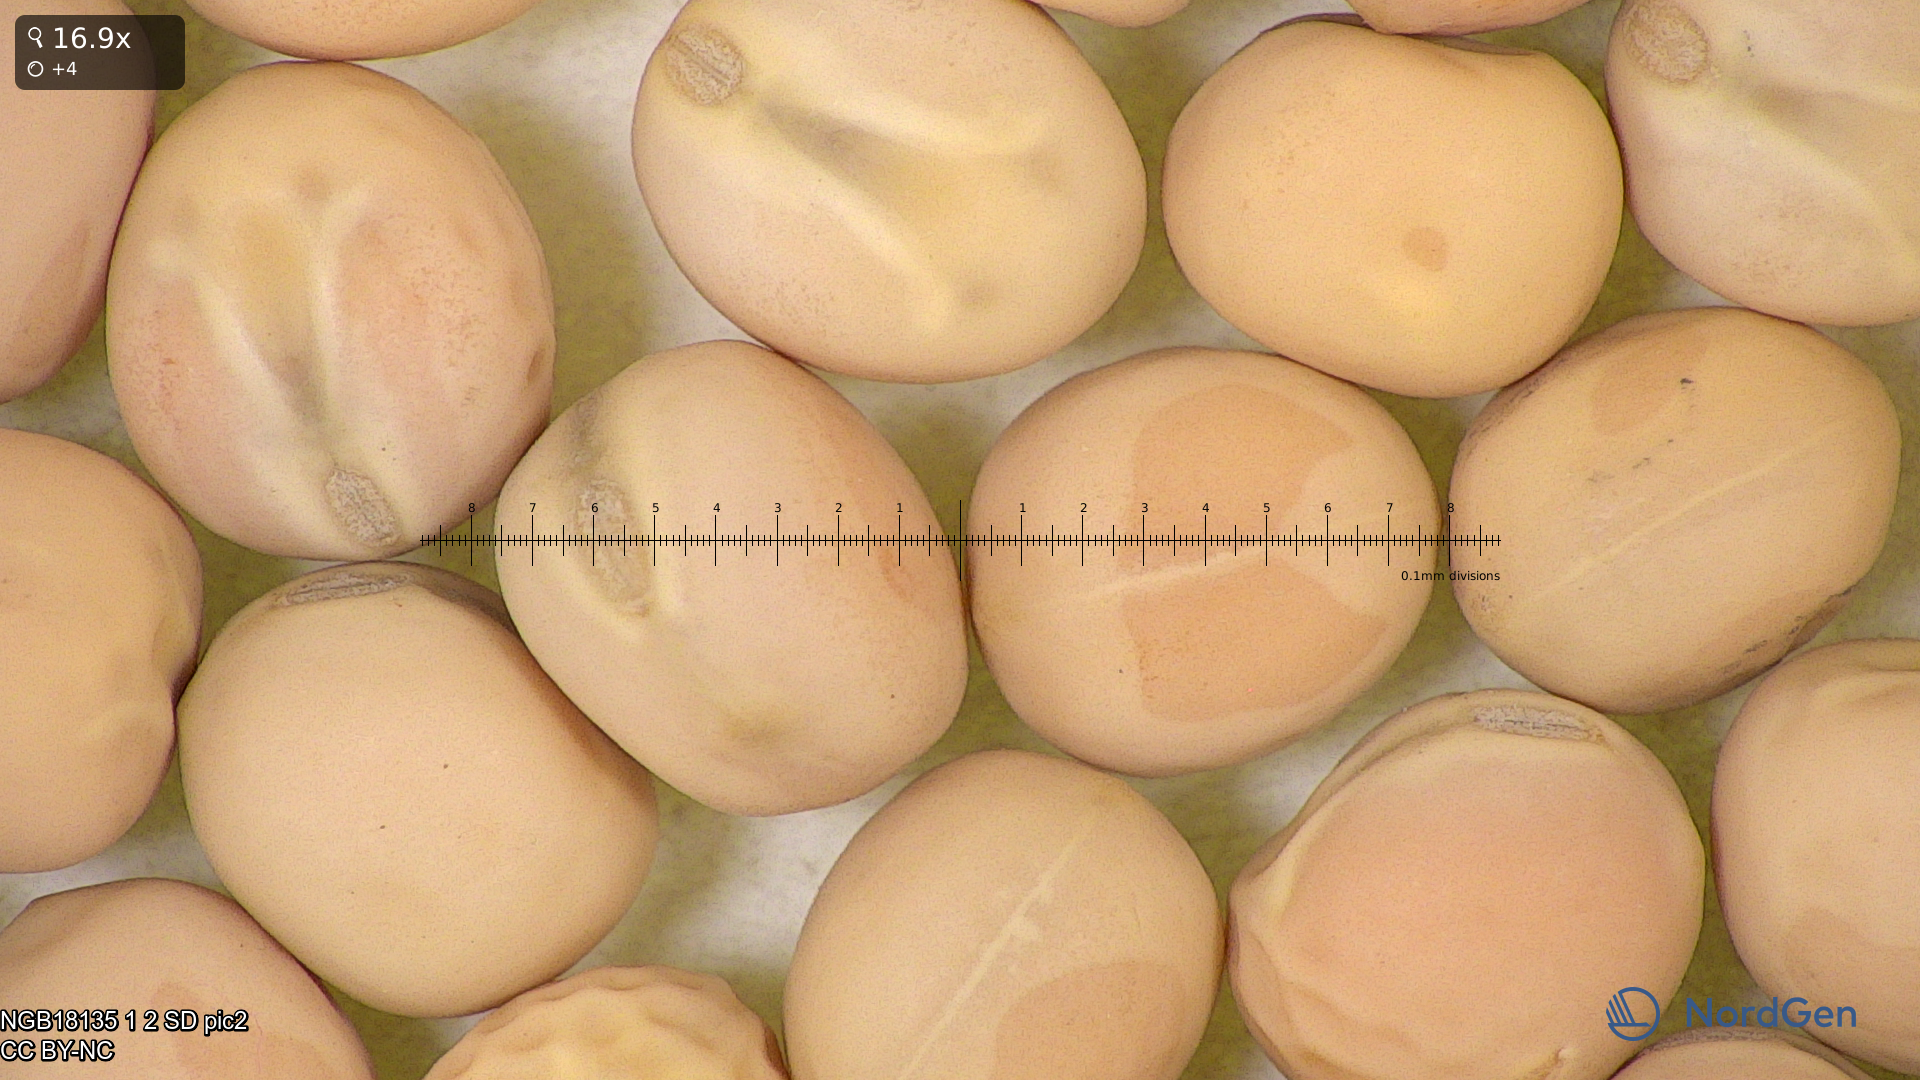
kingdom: Plantae
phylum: Tracheophyta
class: Magnoliopsida
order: Fabales
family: Fabaceae
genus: Lathyrus
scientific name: Lathyrus oleraceus
